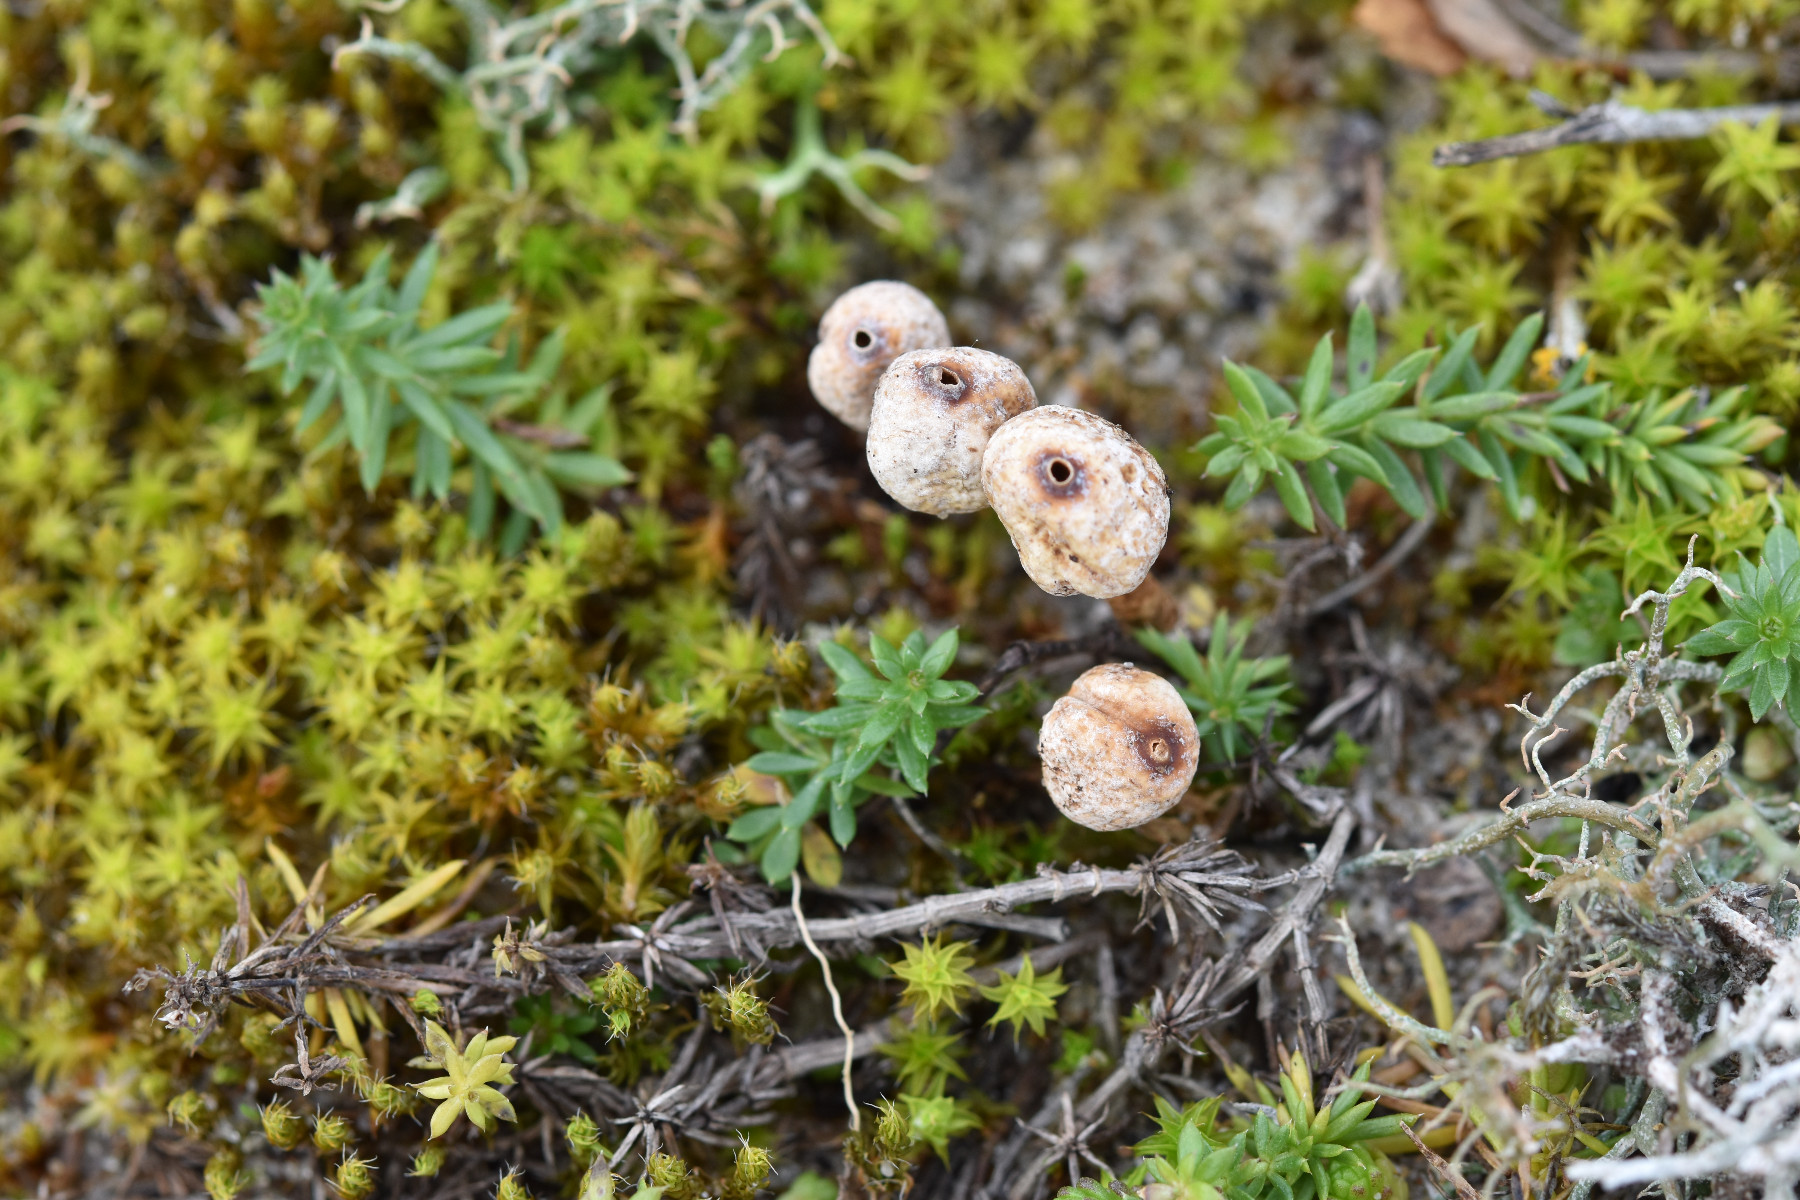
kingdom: Fungi
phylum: Basidiomycota
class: Agaricomycetes
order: Agaricales
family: Agaricaceae
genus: Tulostoma
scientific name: Tulostoma brumale
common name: vinter-stilkbovist
